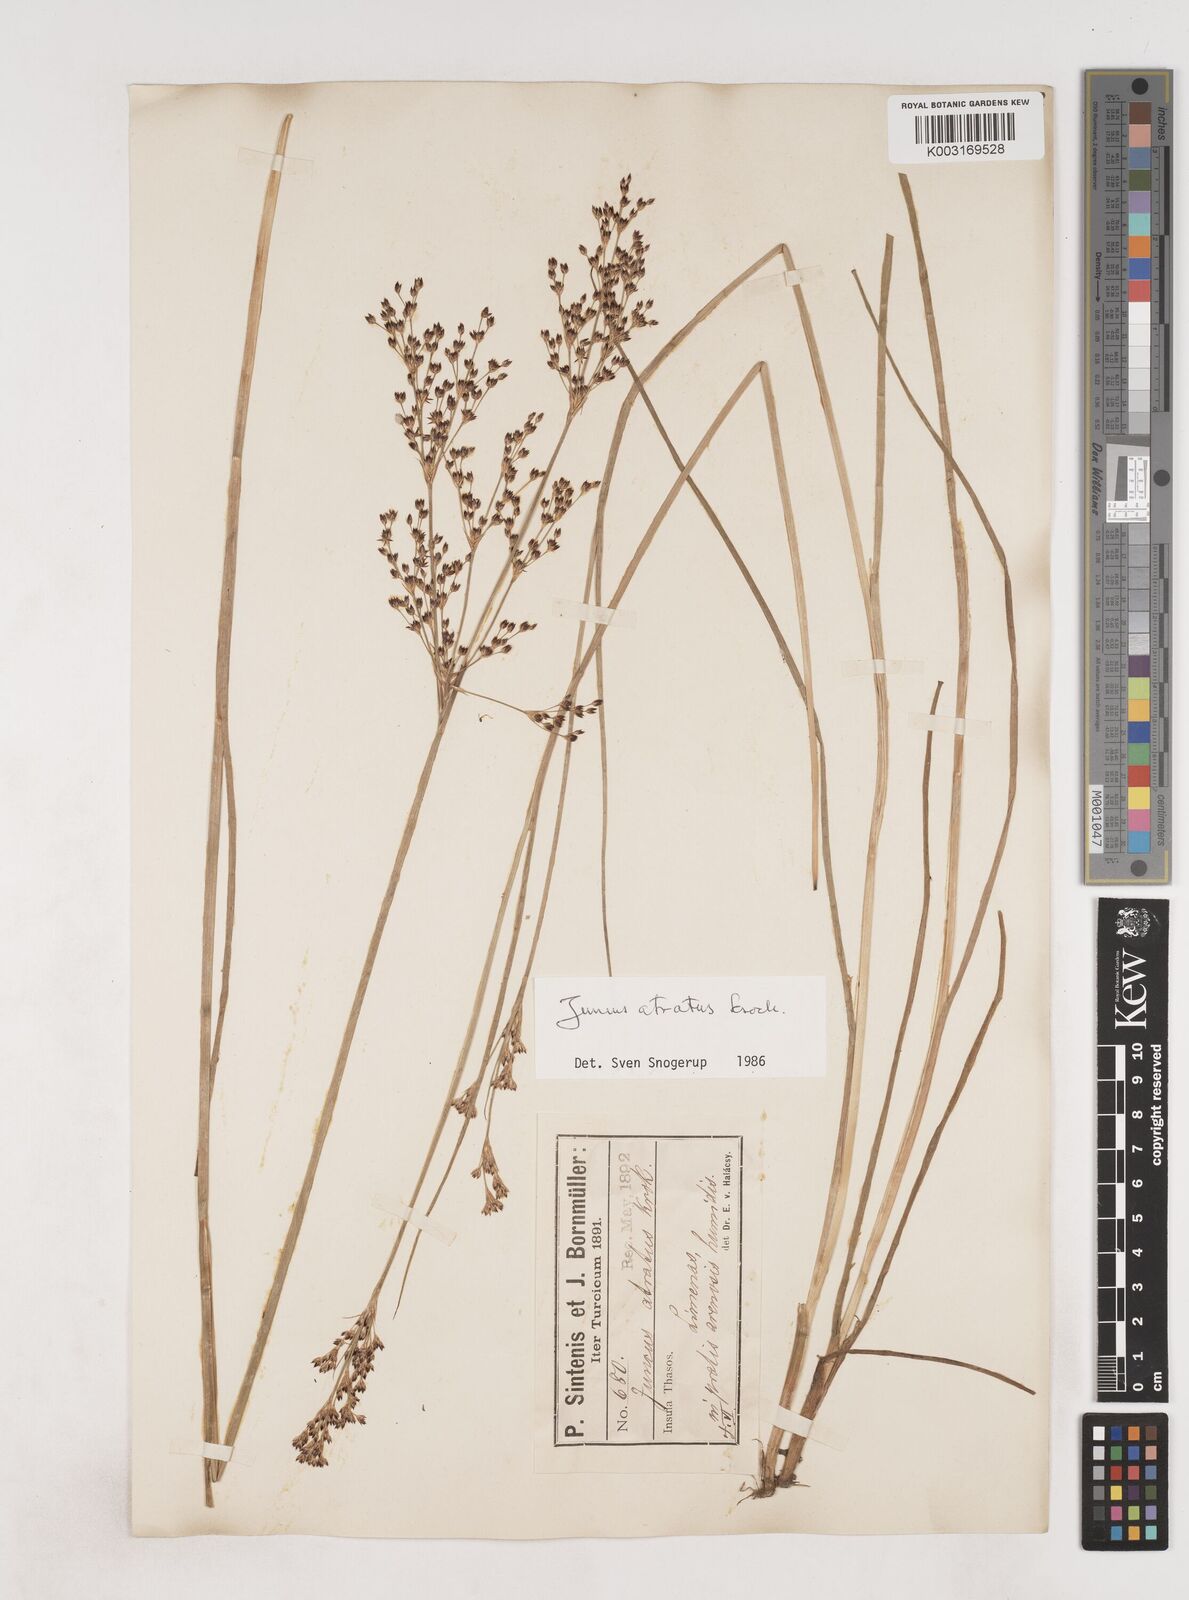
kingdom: Plantae
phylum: Tracheophyta
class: Liliopsida
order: Poales
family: Juncaceae
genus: Juncus
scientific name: Juncus atratus
